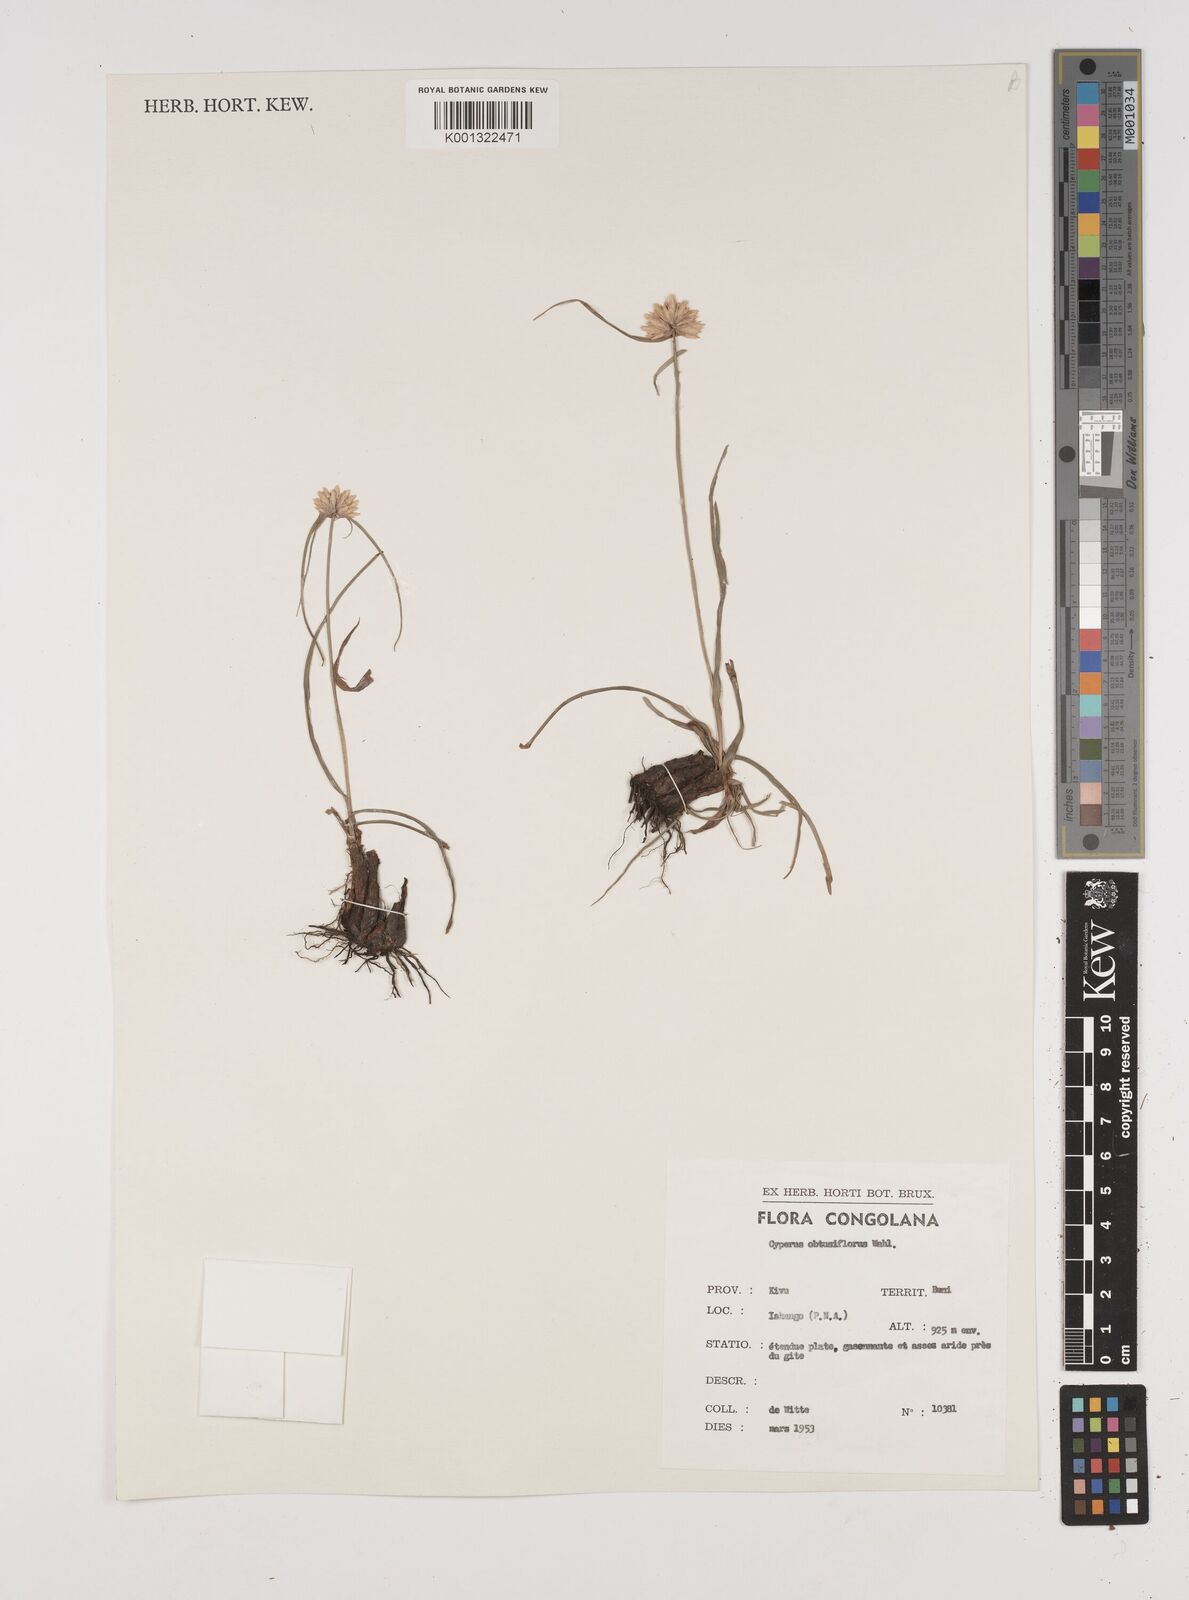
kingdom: Plantae
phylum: Tracheophyta
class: Liliopsida
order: Poales
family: Cyperaceae
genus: Cyperus
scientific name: Cyperus niveus
